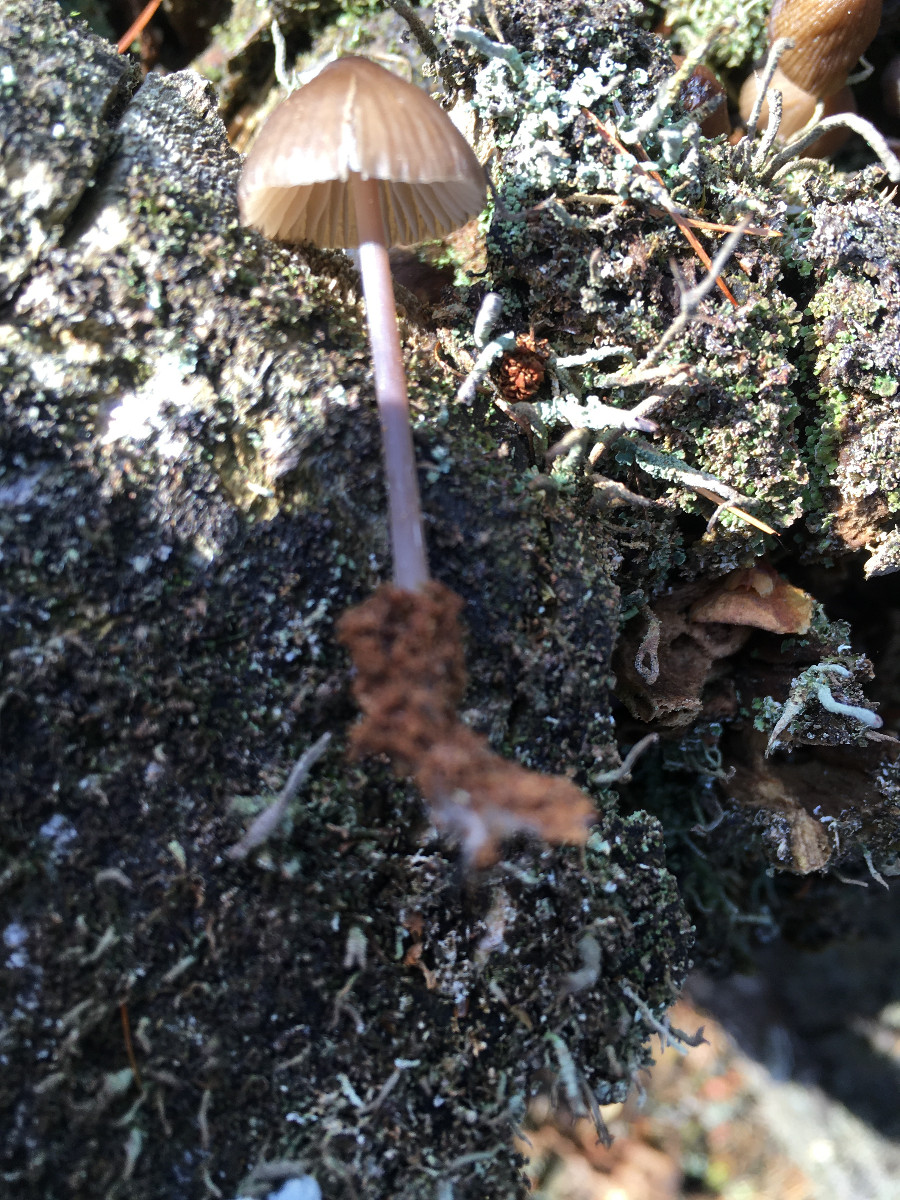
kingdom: Fungi
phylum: Basidiomycota
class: Agaricomycetes
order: Agaricales
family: Mycenaceae
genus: Mycena
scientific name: Mycena
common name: huesvamp
